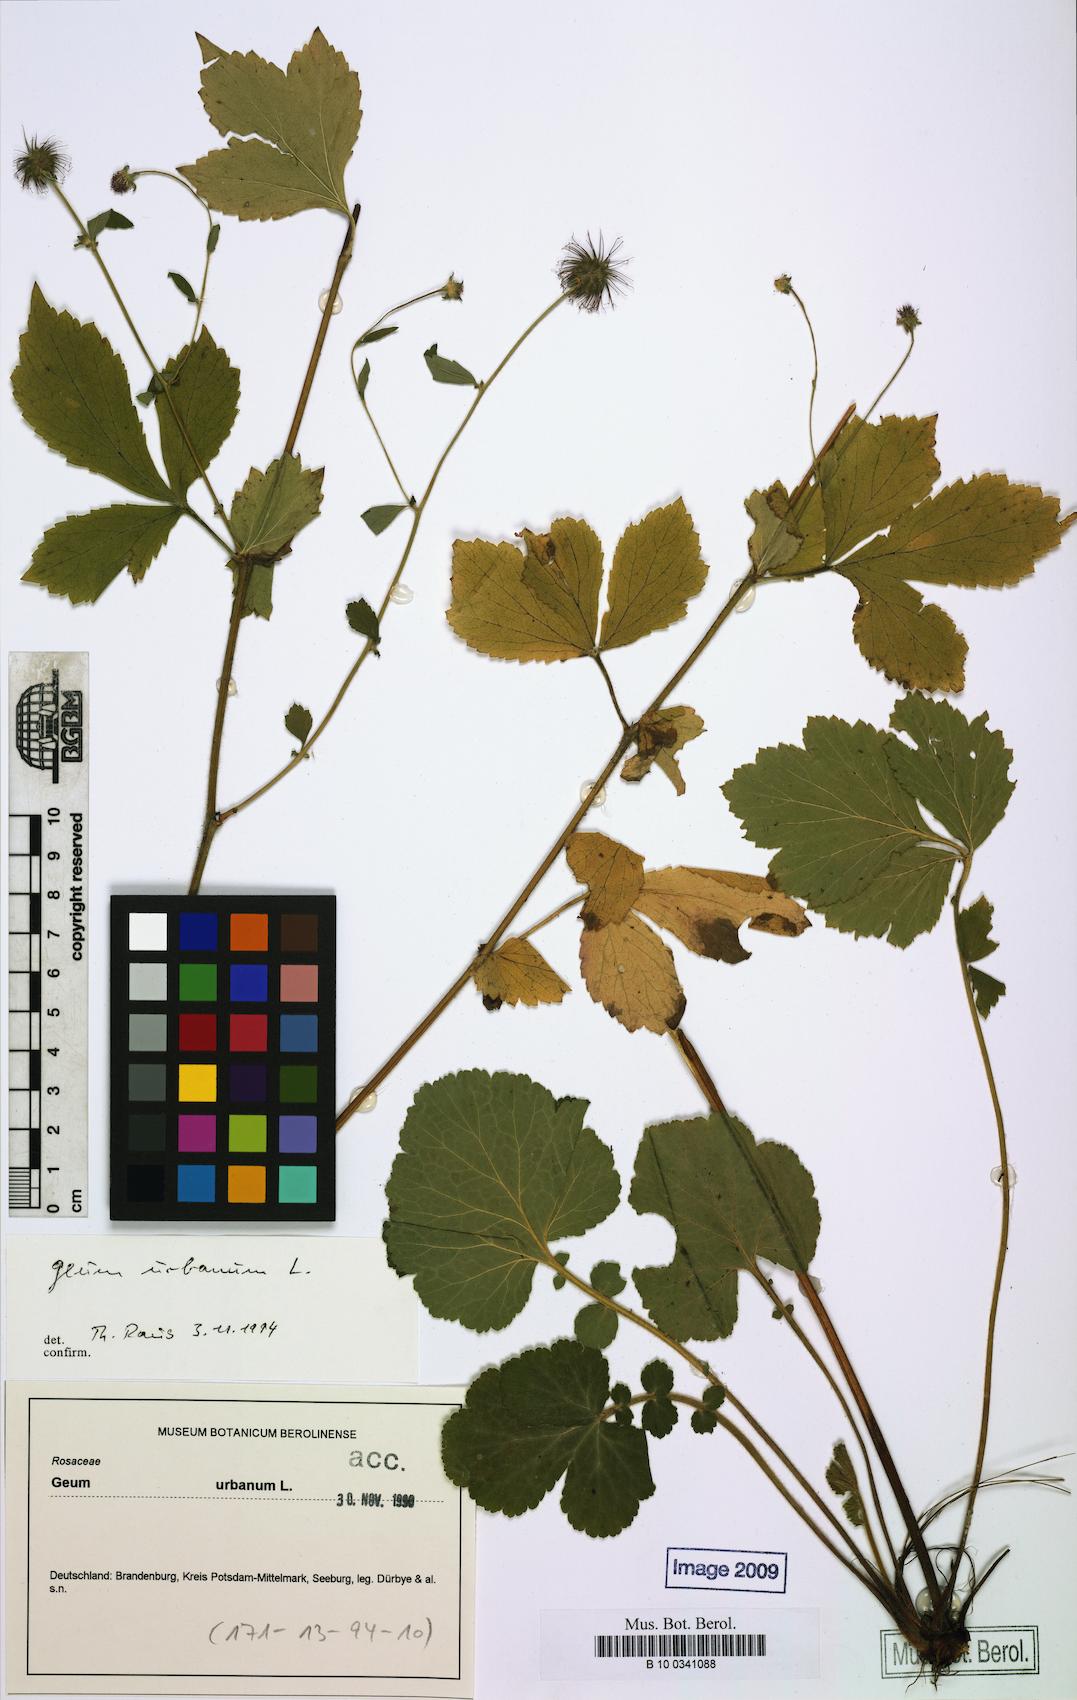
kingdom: Plantae
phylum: Tracheophyta
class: Magnoliopsida
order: Rosales
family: Rosaceae
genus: Geum
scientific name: Geum urbanum
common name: Wood avens
